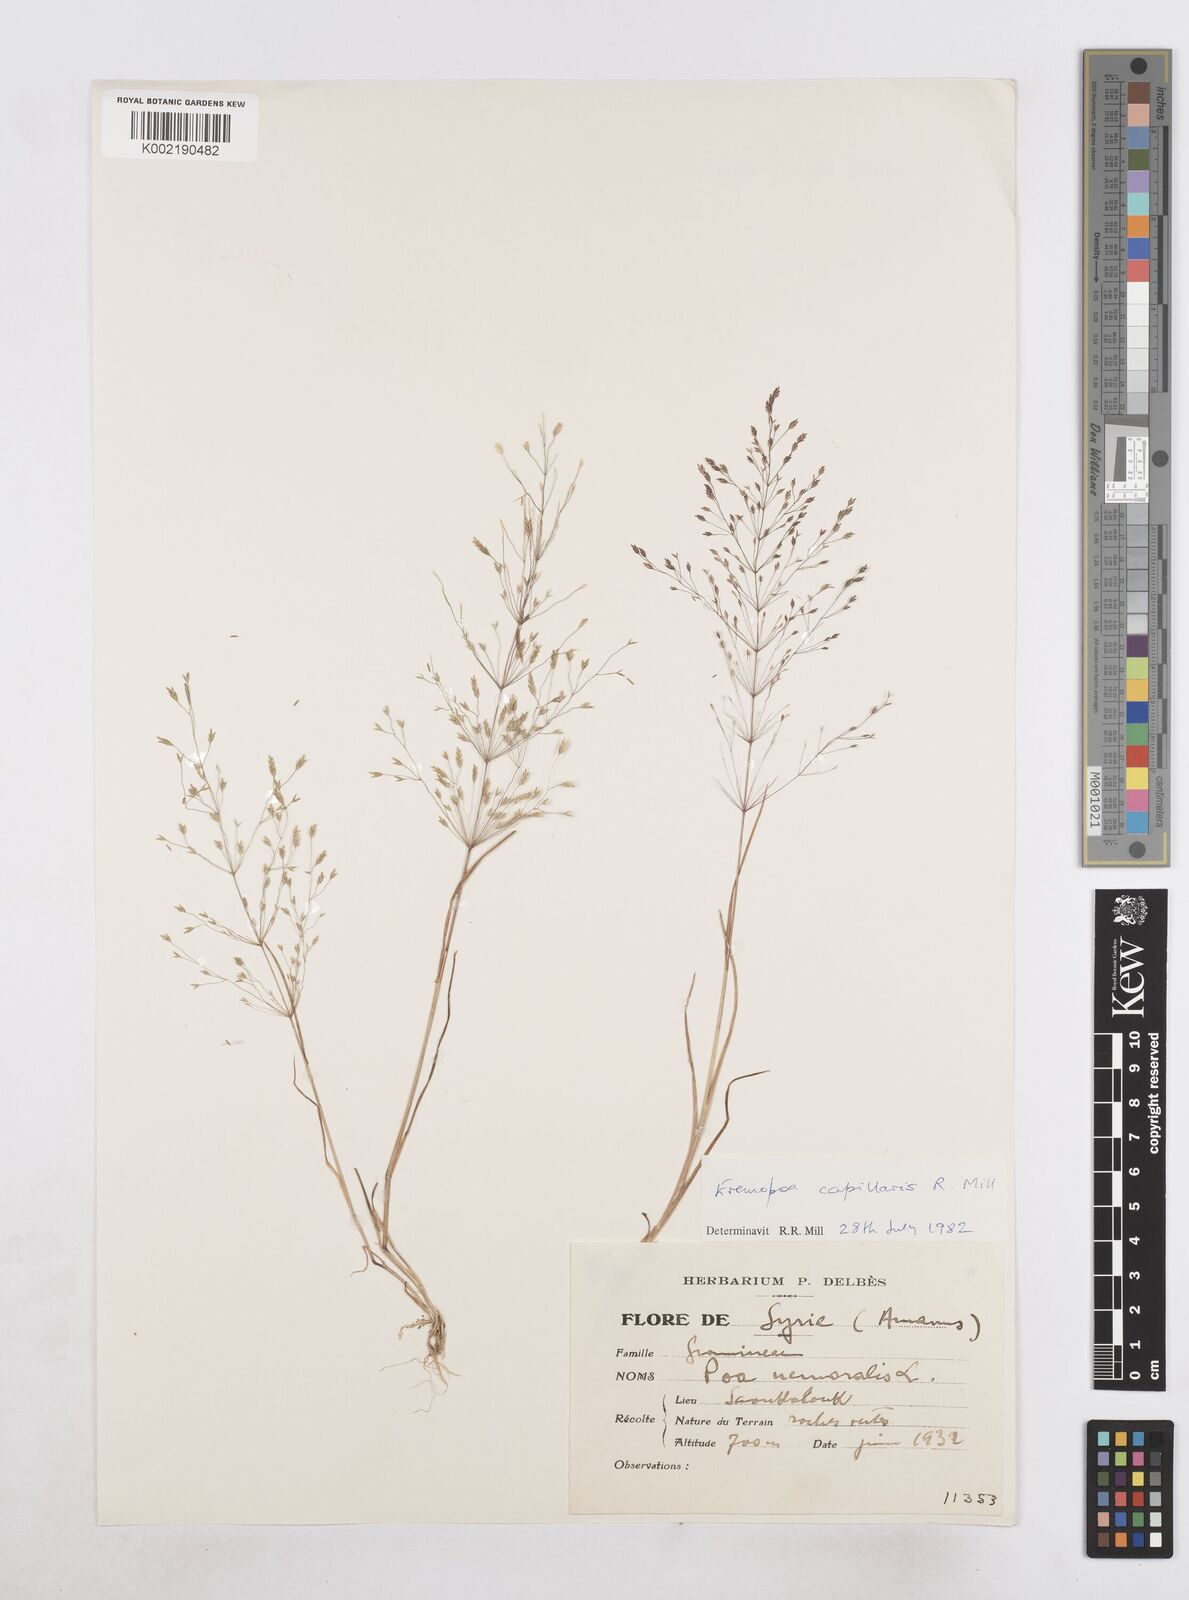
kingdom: Plantae
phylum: Tracheophyta
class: Liliopsida
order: Poales
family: Poaceae
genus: Poa
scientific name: Poa millii
